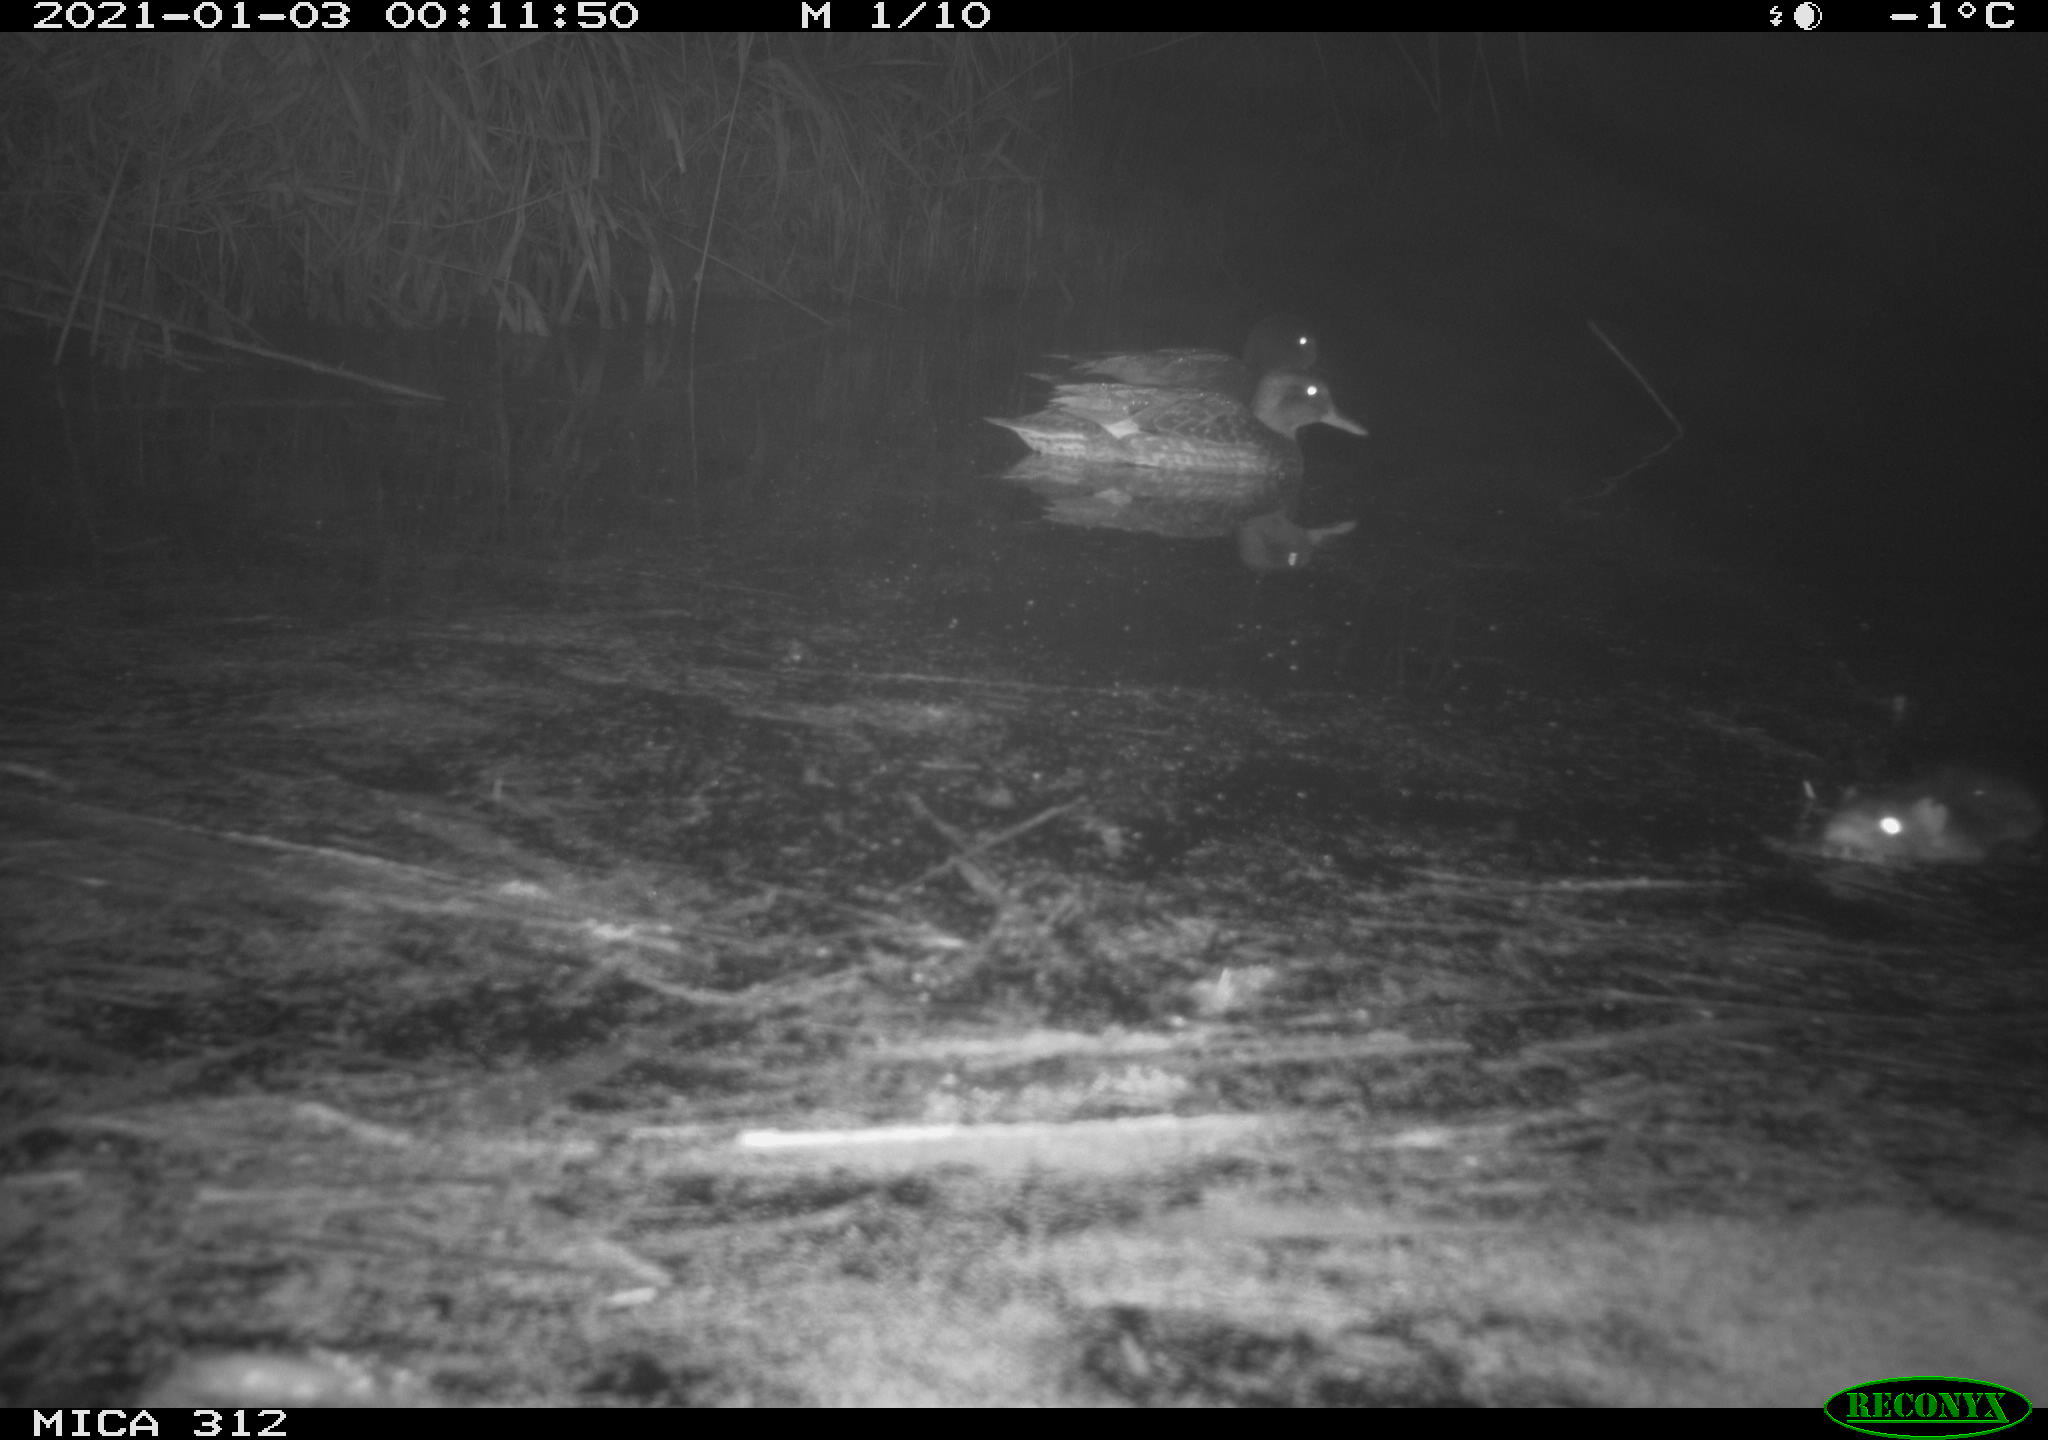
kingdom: Animalia
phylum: Chordata
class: Mammalia
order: Rodentia
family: Muridae
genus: Rattus
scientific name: Rattus norvegicus
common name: Brown rat
